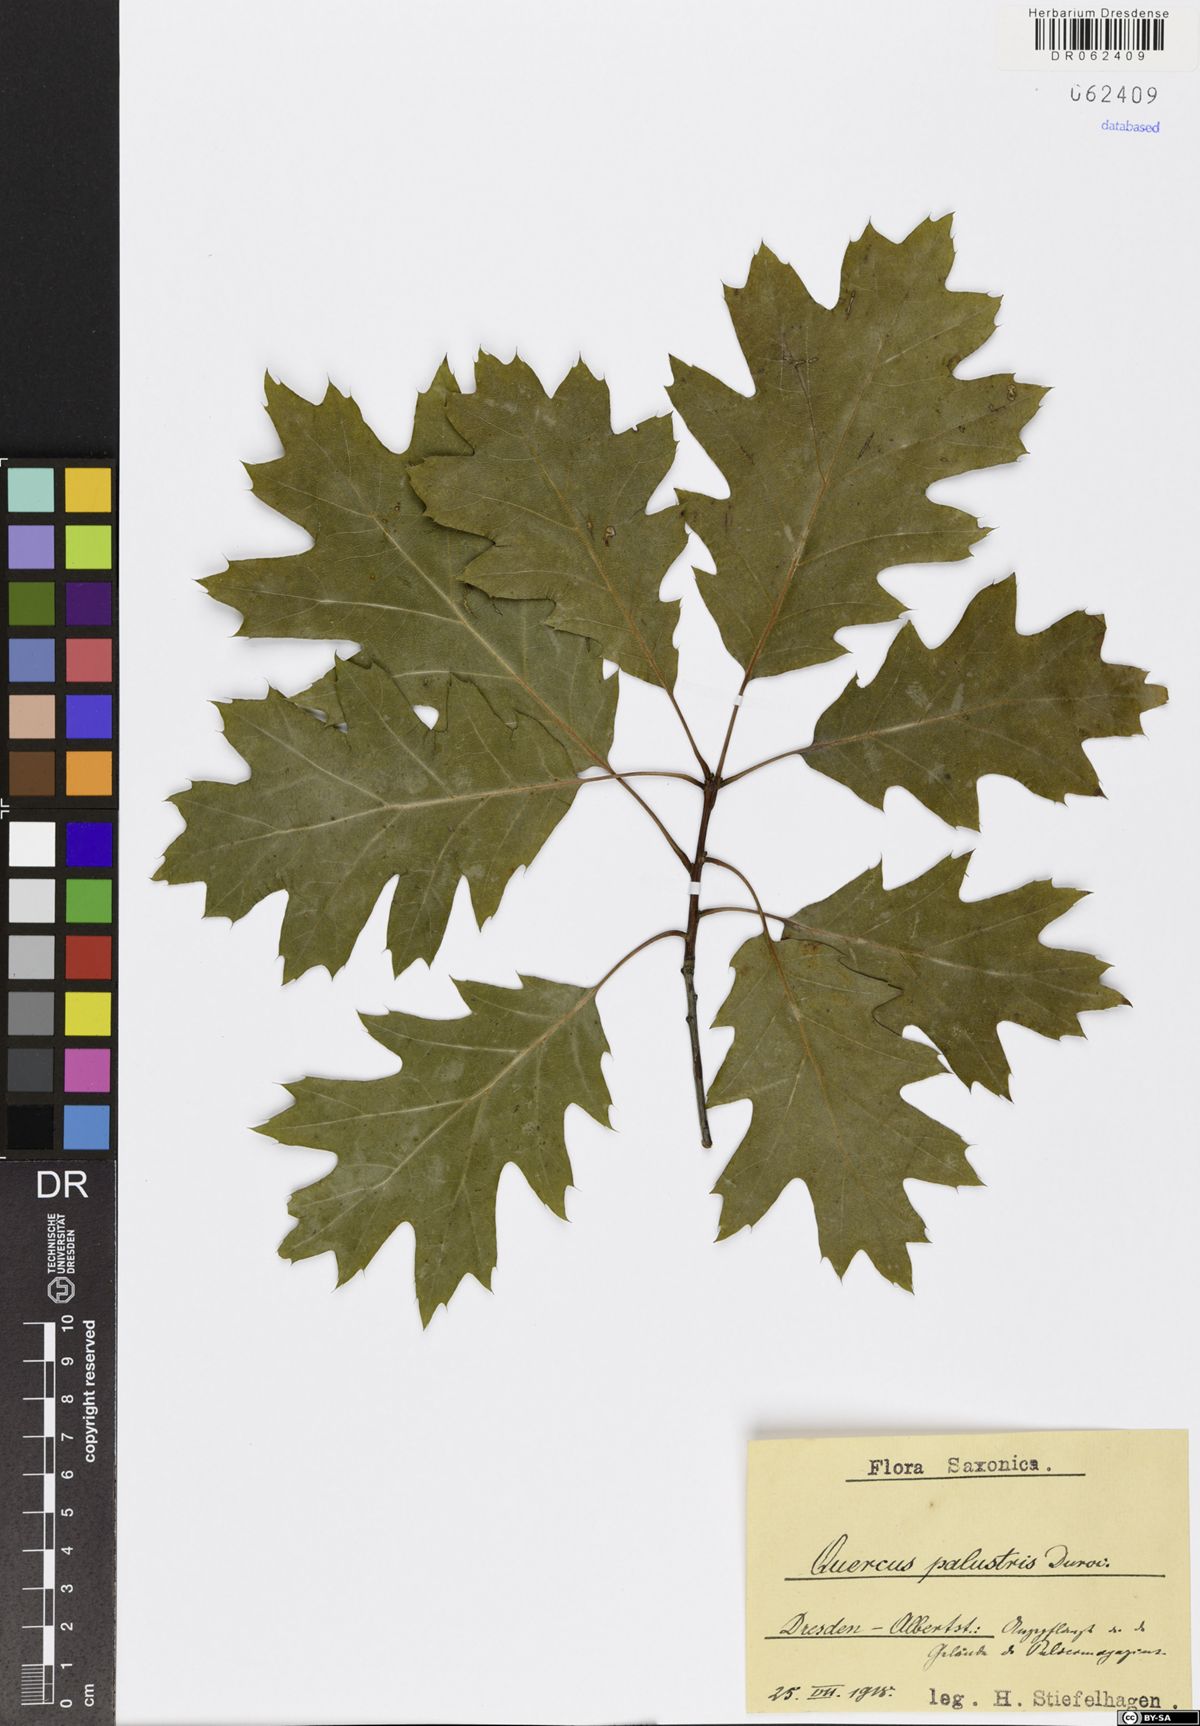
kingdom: Plantae
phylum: Tracheophyta
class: Magnoliopsida
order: Fagales
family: Fagaceae
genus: Quercus
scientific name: Quercus palustris
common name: Pin oak
